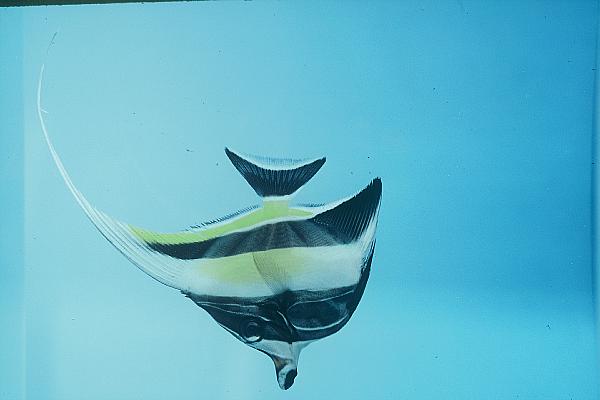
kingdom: Animalia
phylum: Chordata
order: Perciformes
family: Zanclidae
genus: Zanclus
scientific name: Zanclus cornutus
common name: Moorish idol
